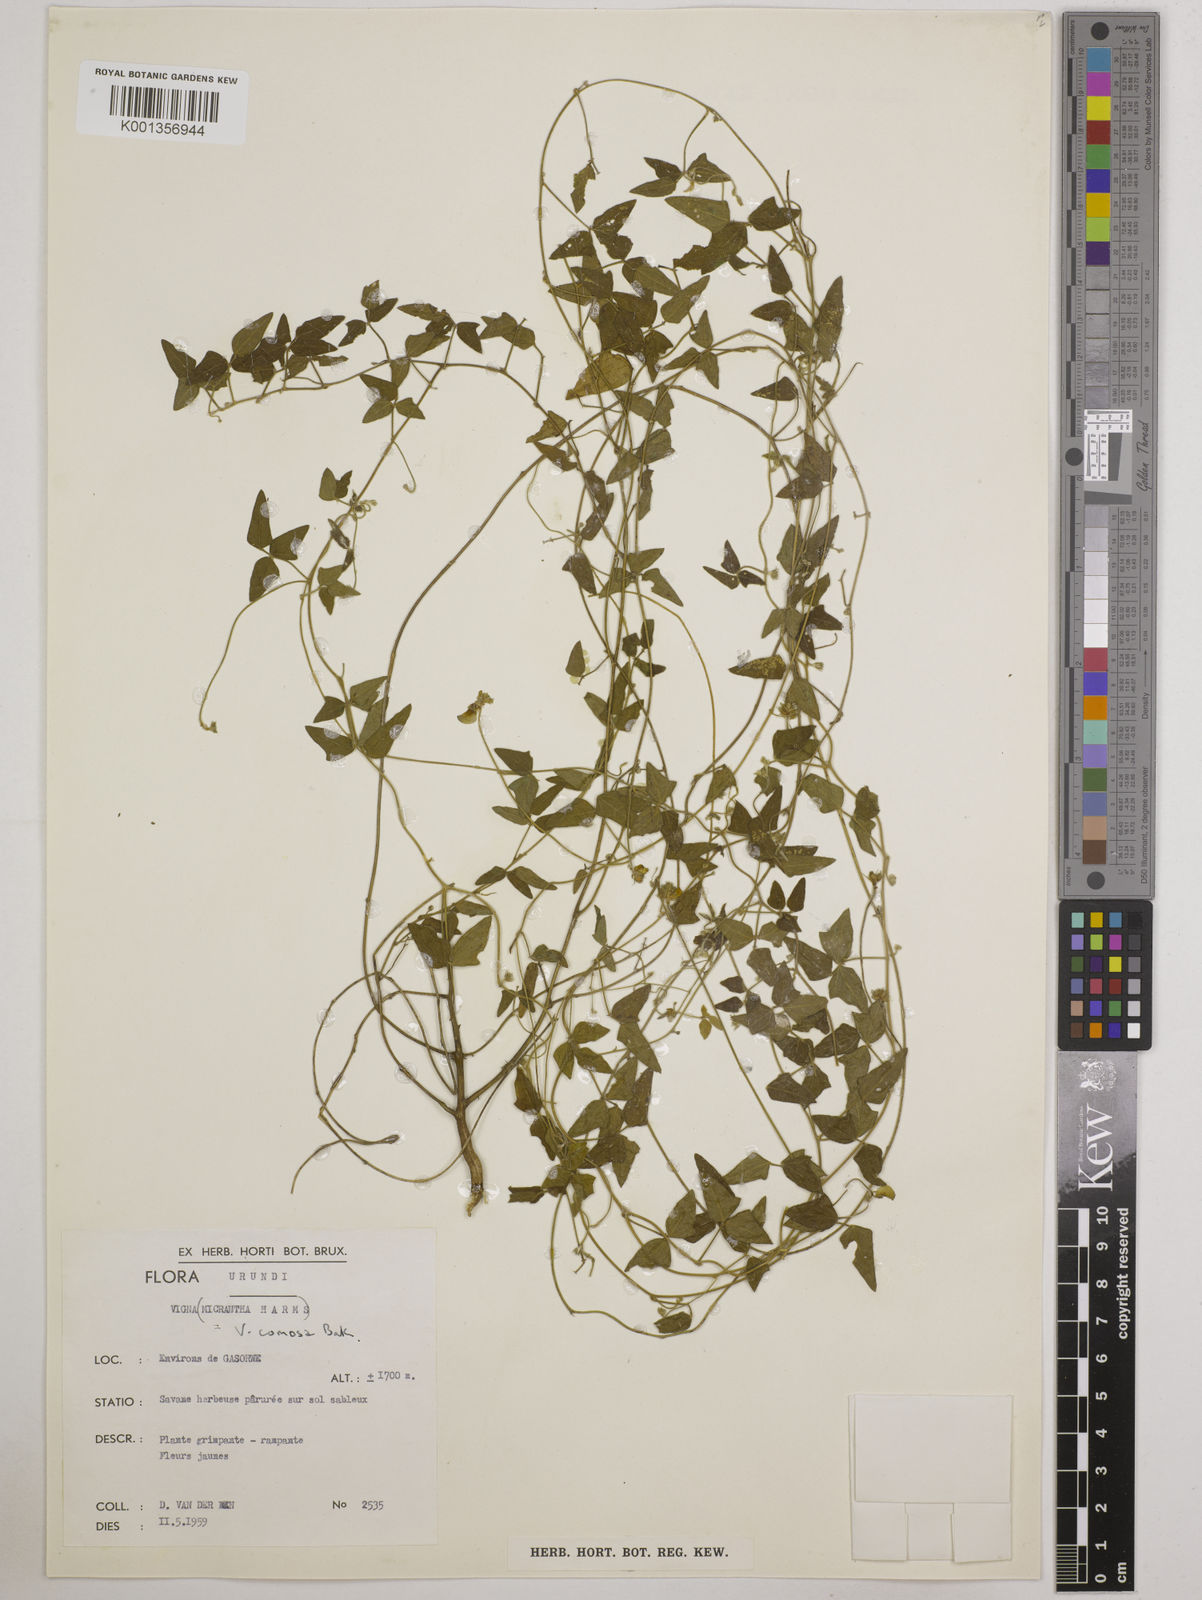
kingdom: Plantae
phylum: Tracheophyta
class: Magnoliopsida
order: Fabales
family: Fabaceae
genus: Vigna
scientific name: Vigna comosa
